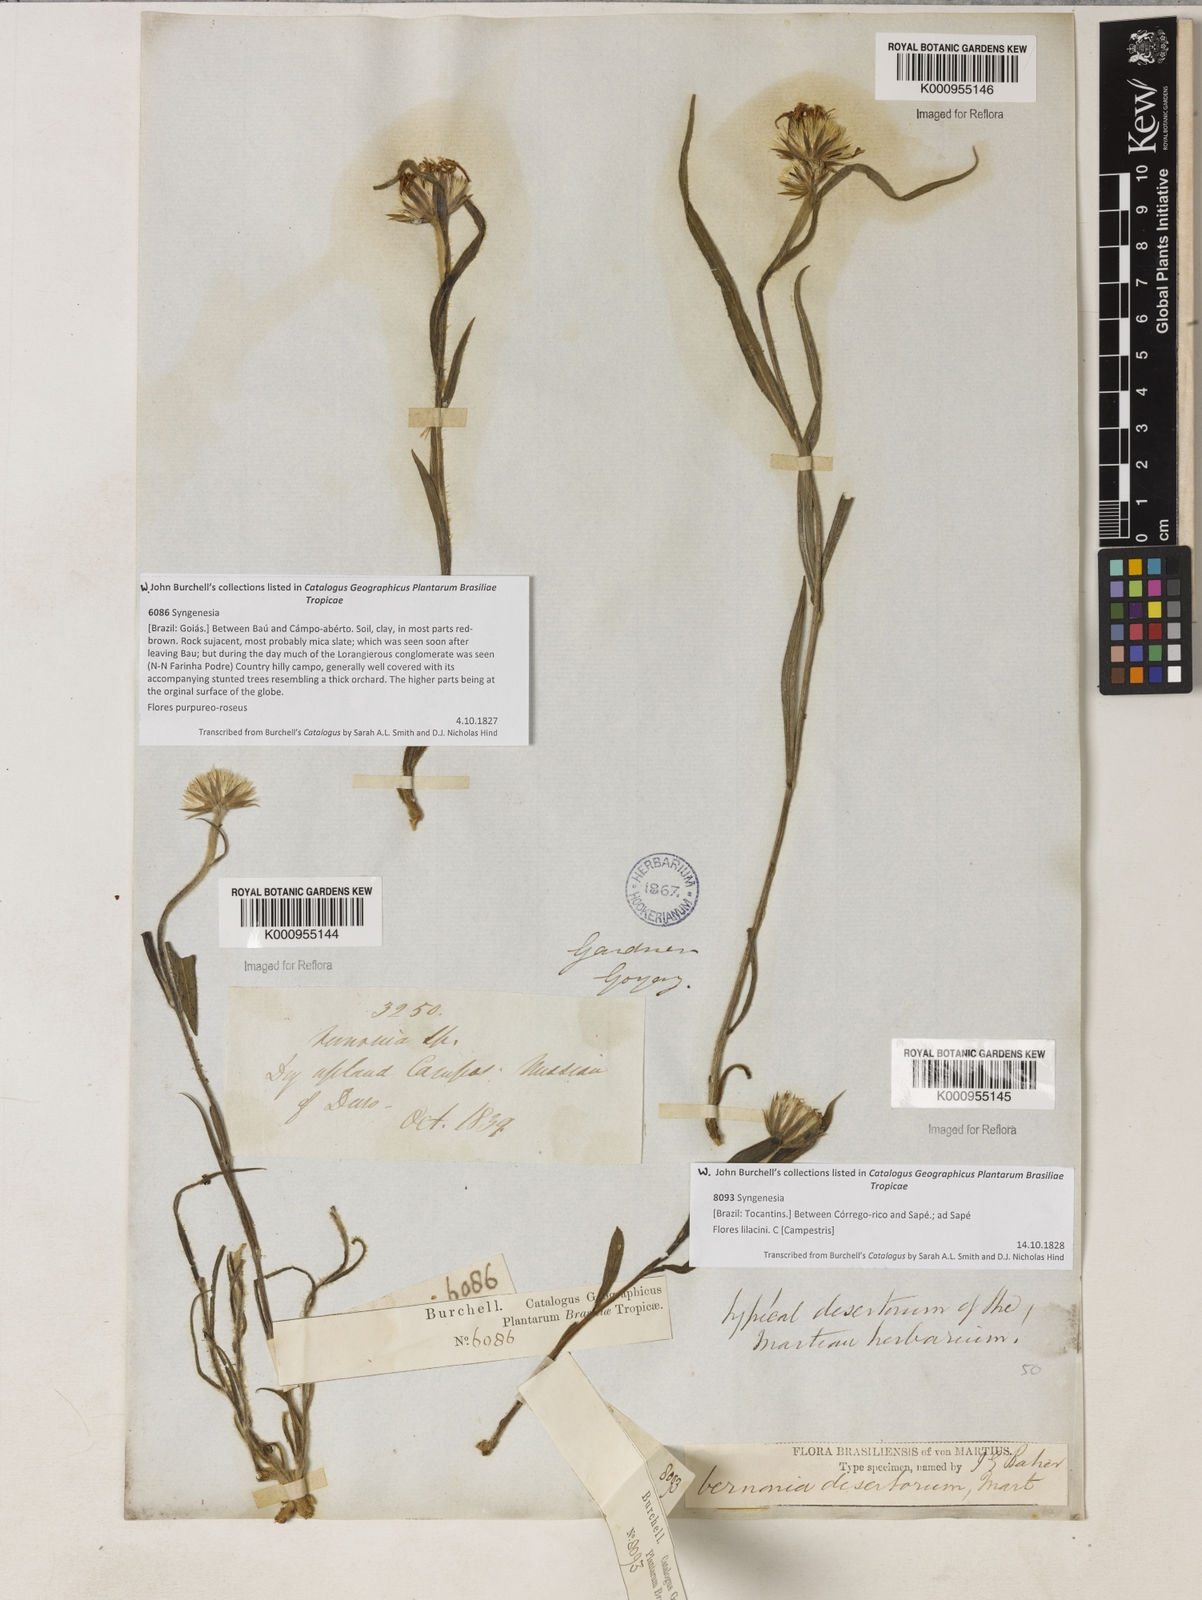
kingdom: Plantae
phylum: Tracheophyta
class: Magnoliopsida
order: Asterales
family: Asteraceae
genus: Chrysolaena
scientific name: Chrysolaena desertorum
